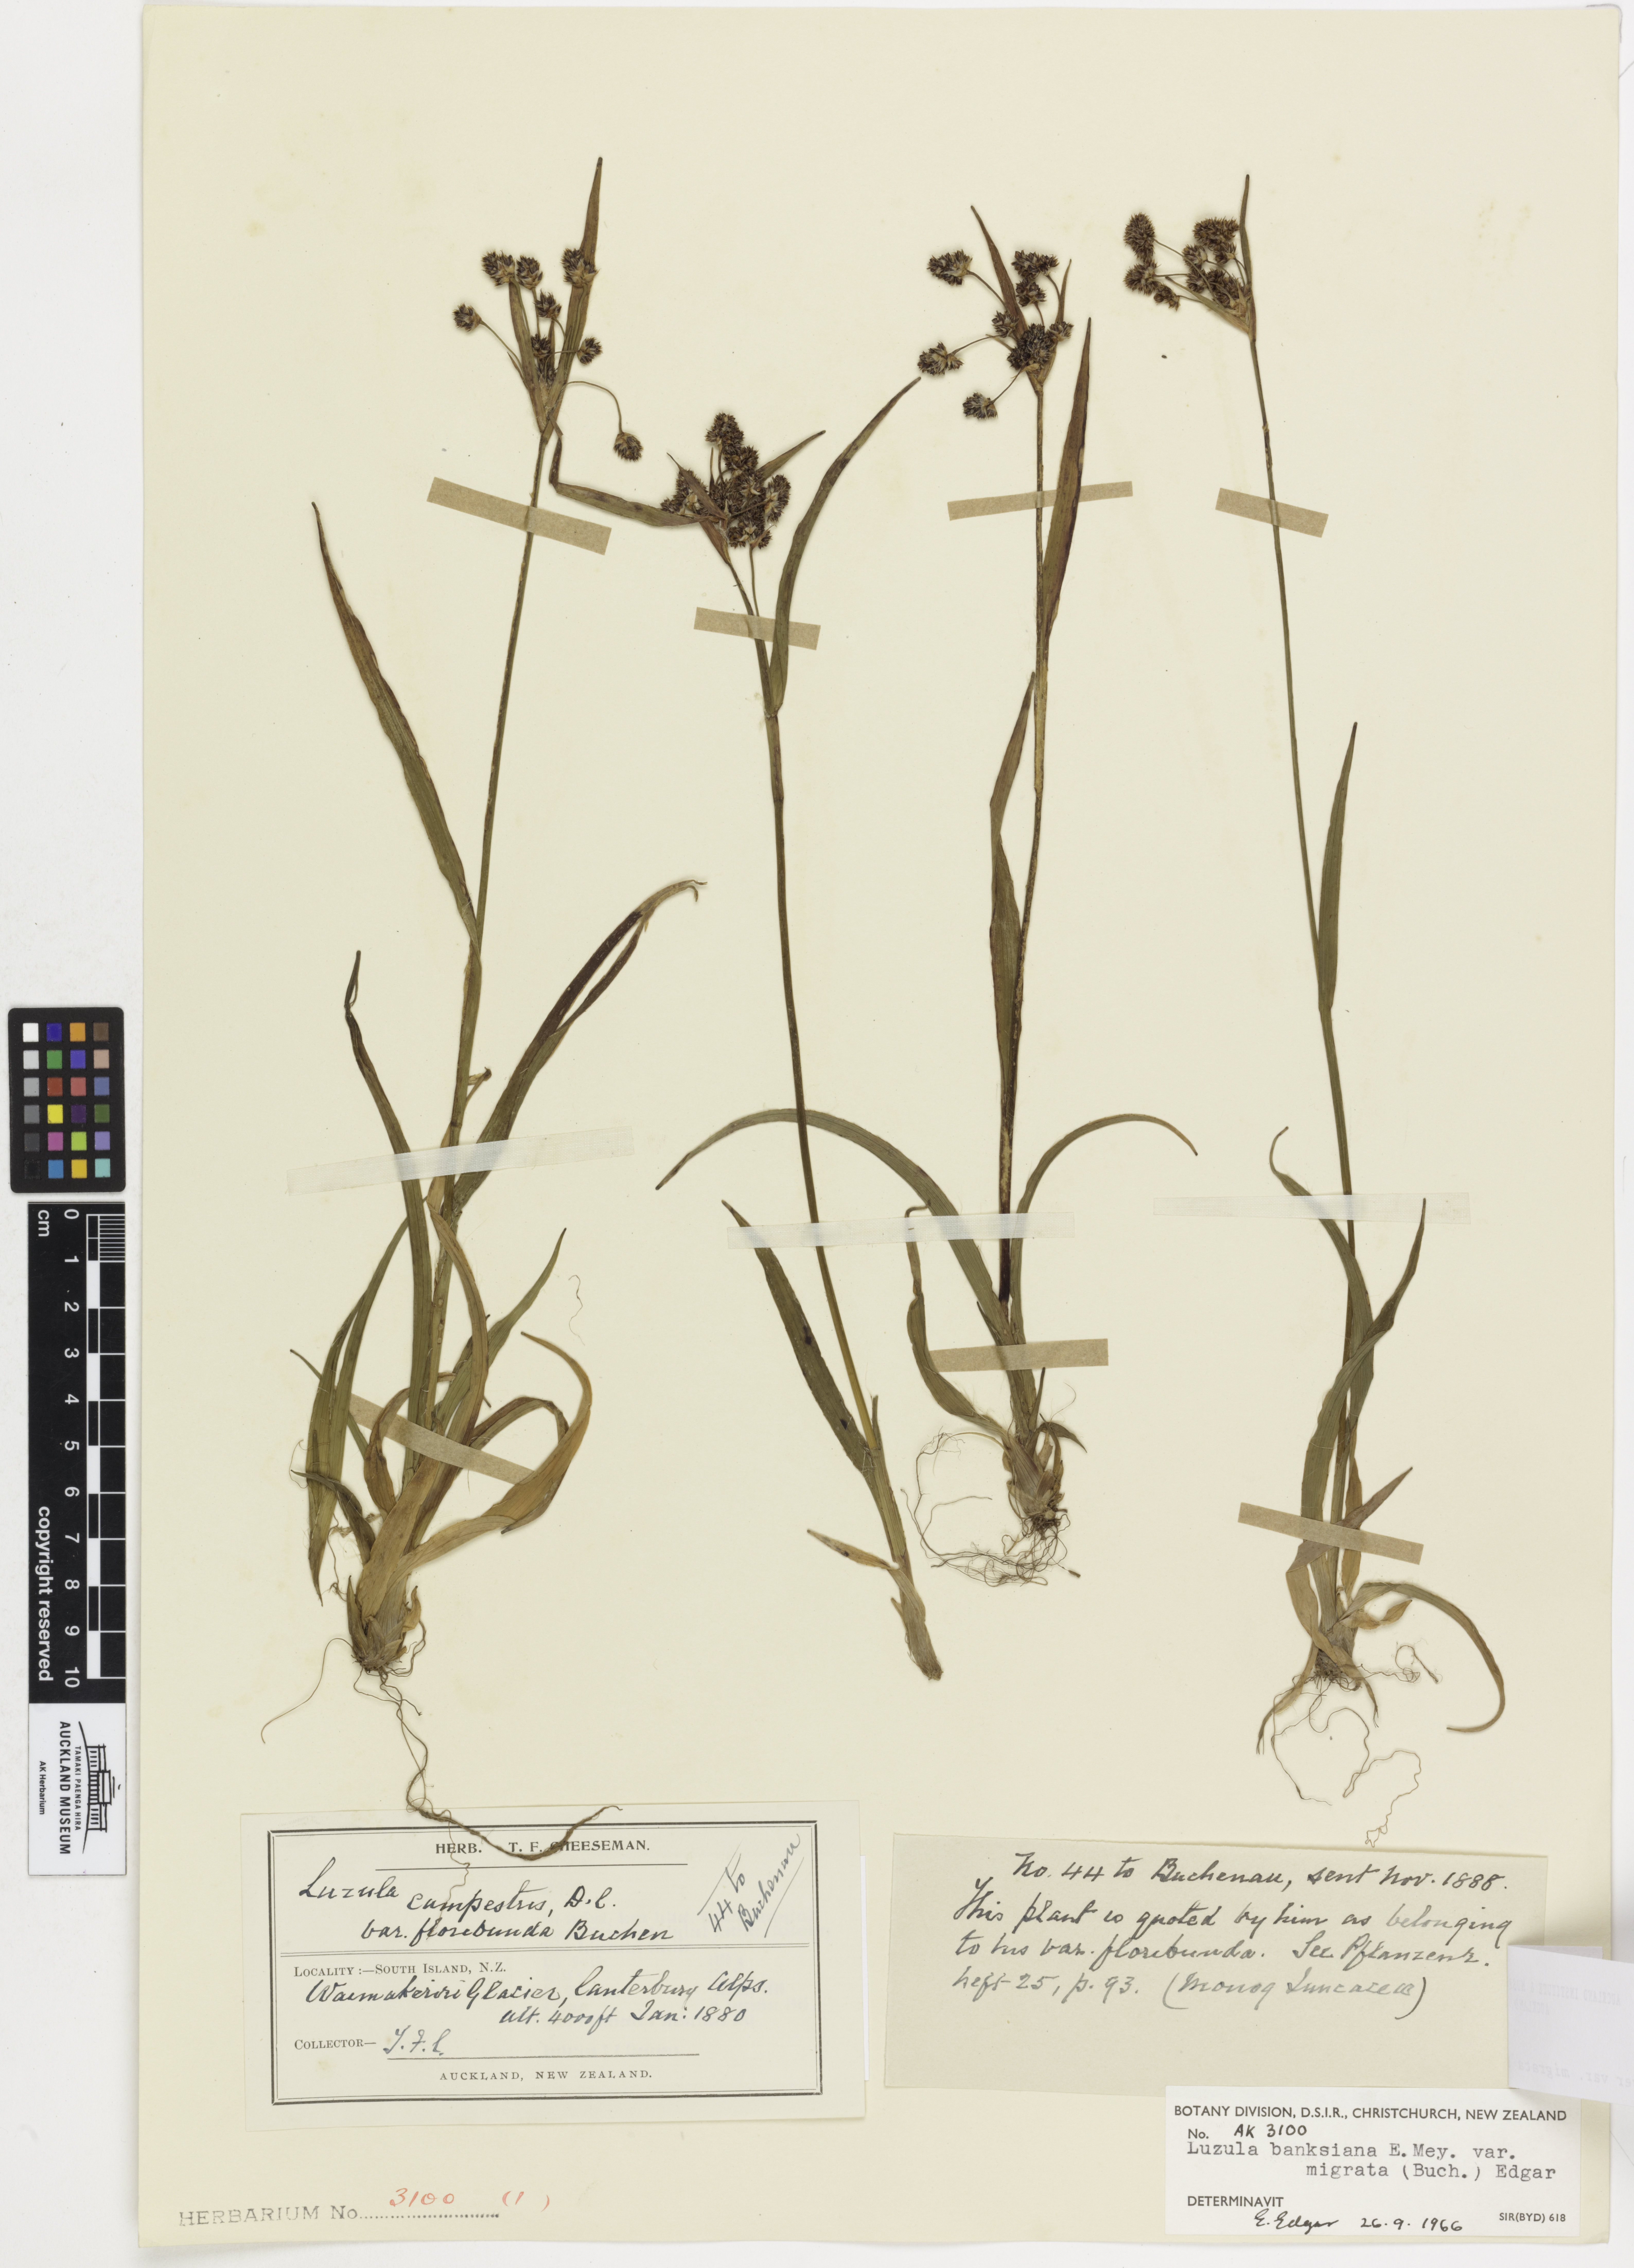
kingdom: Plantae
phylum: Tracheophyta
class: Liliopsida
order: Poales
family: Juncaceae
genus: Luzula
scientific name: Luzula banksiana
